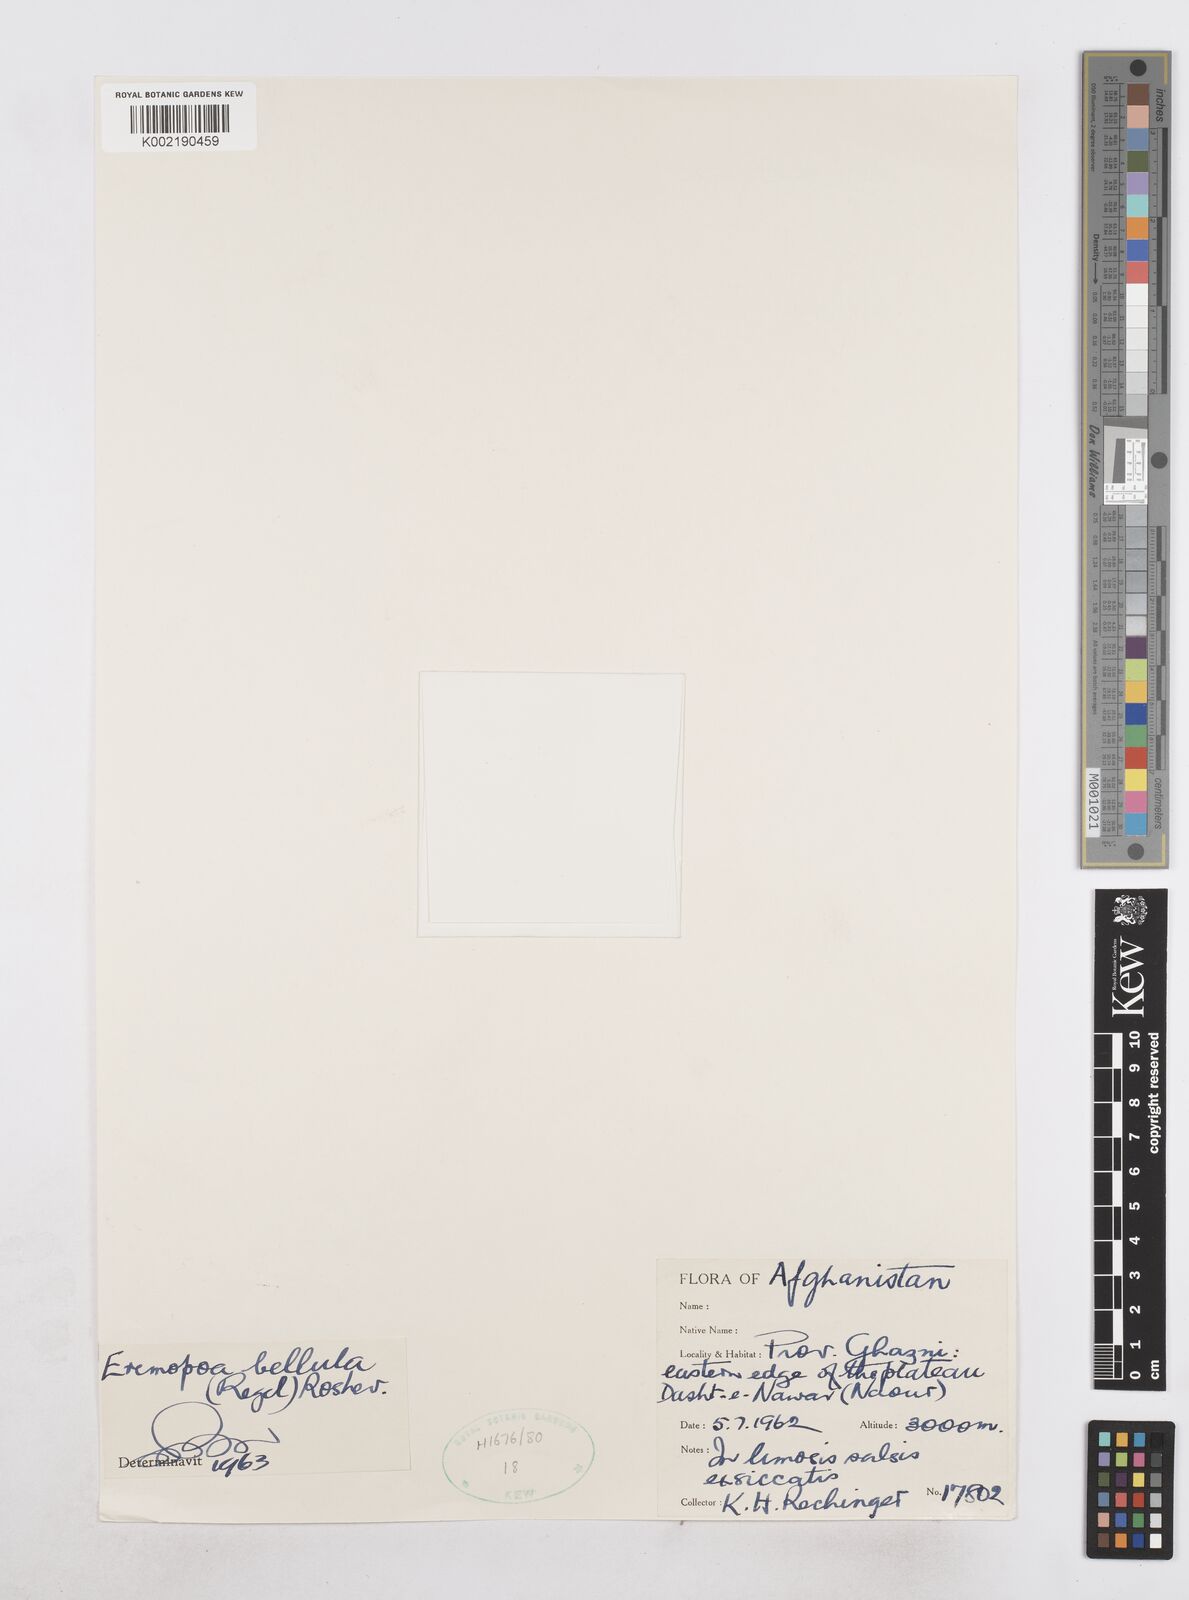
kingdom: Plantae
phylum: Tracheophyta
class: Liliopsida
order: Poales
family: Poaceae
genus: Poa
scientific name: Poa diaphora
